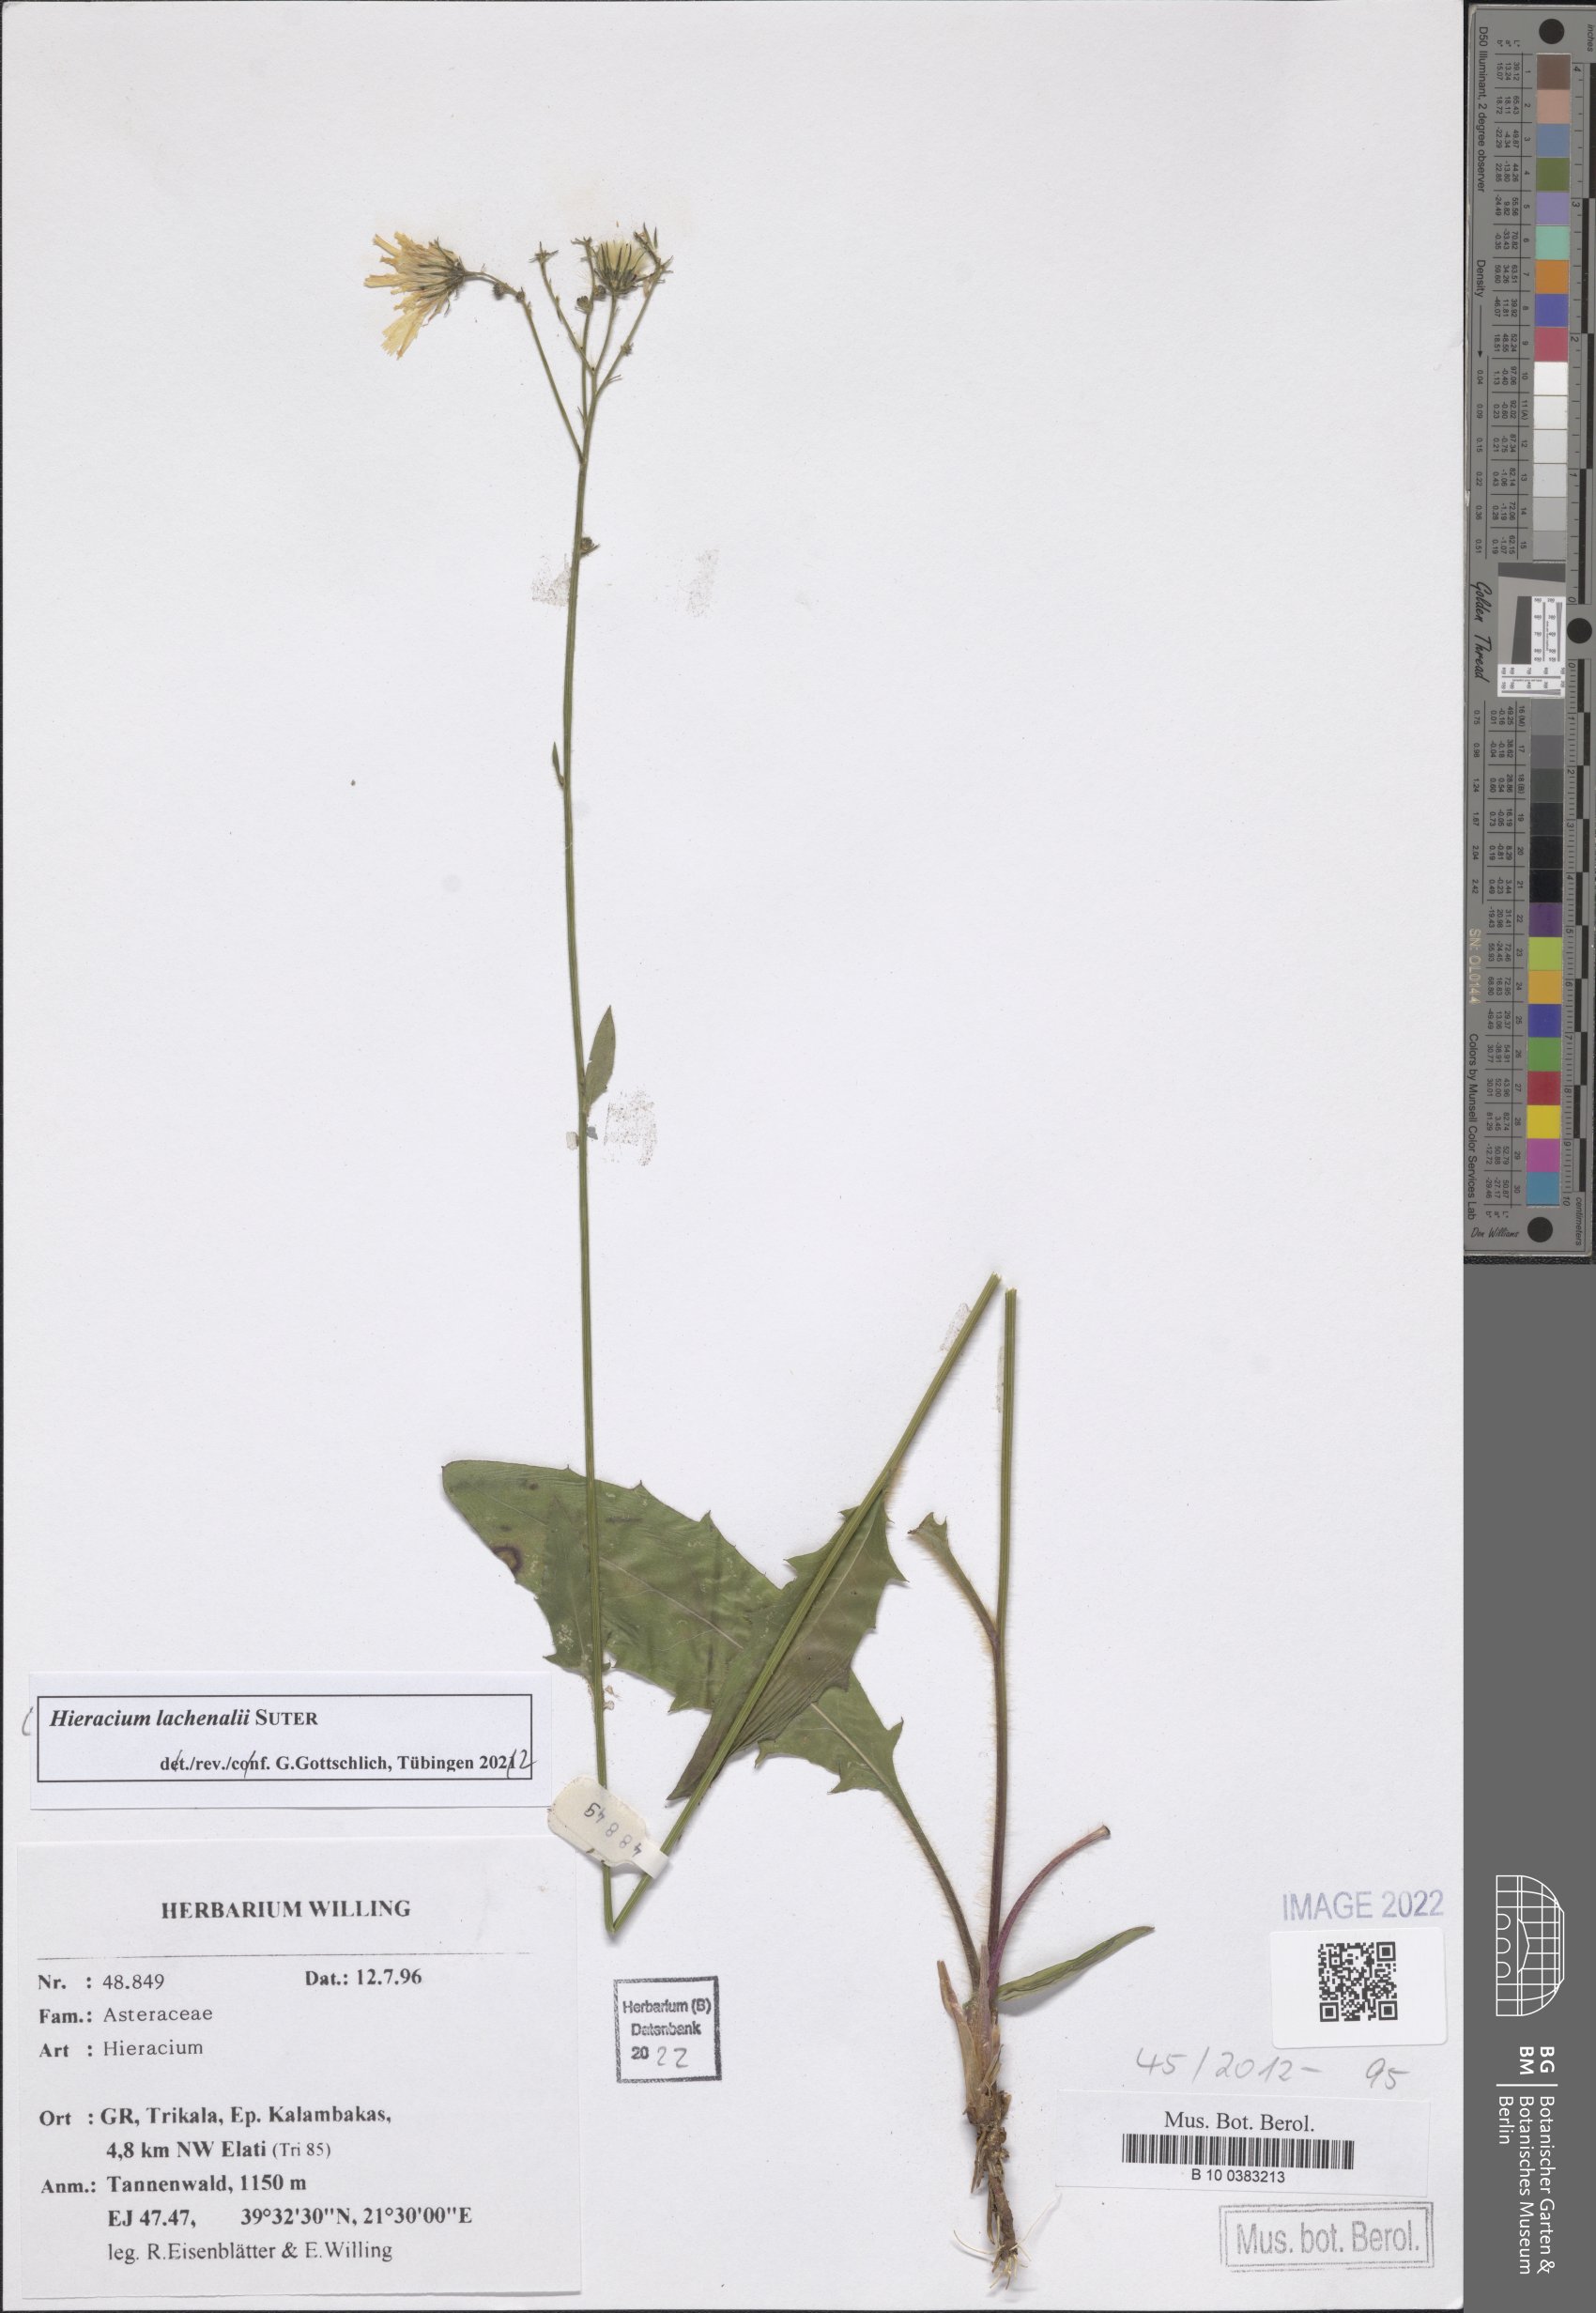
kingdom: Plantae
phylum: Tracheophyta
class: Magnoliopsida
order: Asterales
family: Asteraceae
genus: Hieracium
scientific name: Hieracium lachenalii
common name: Common hawkweed
